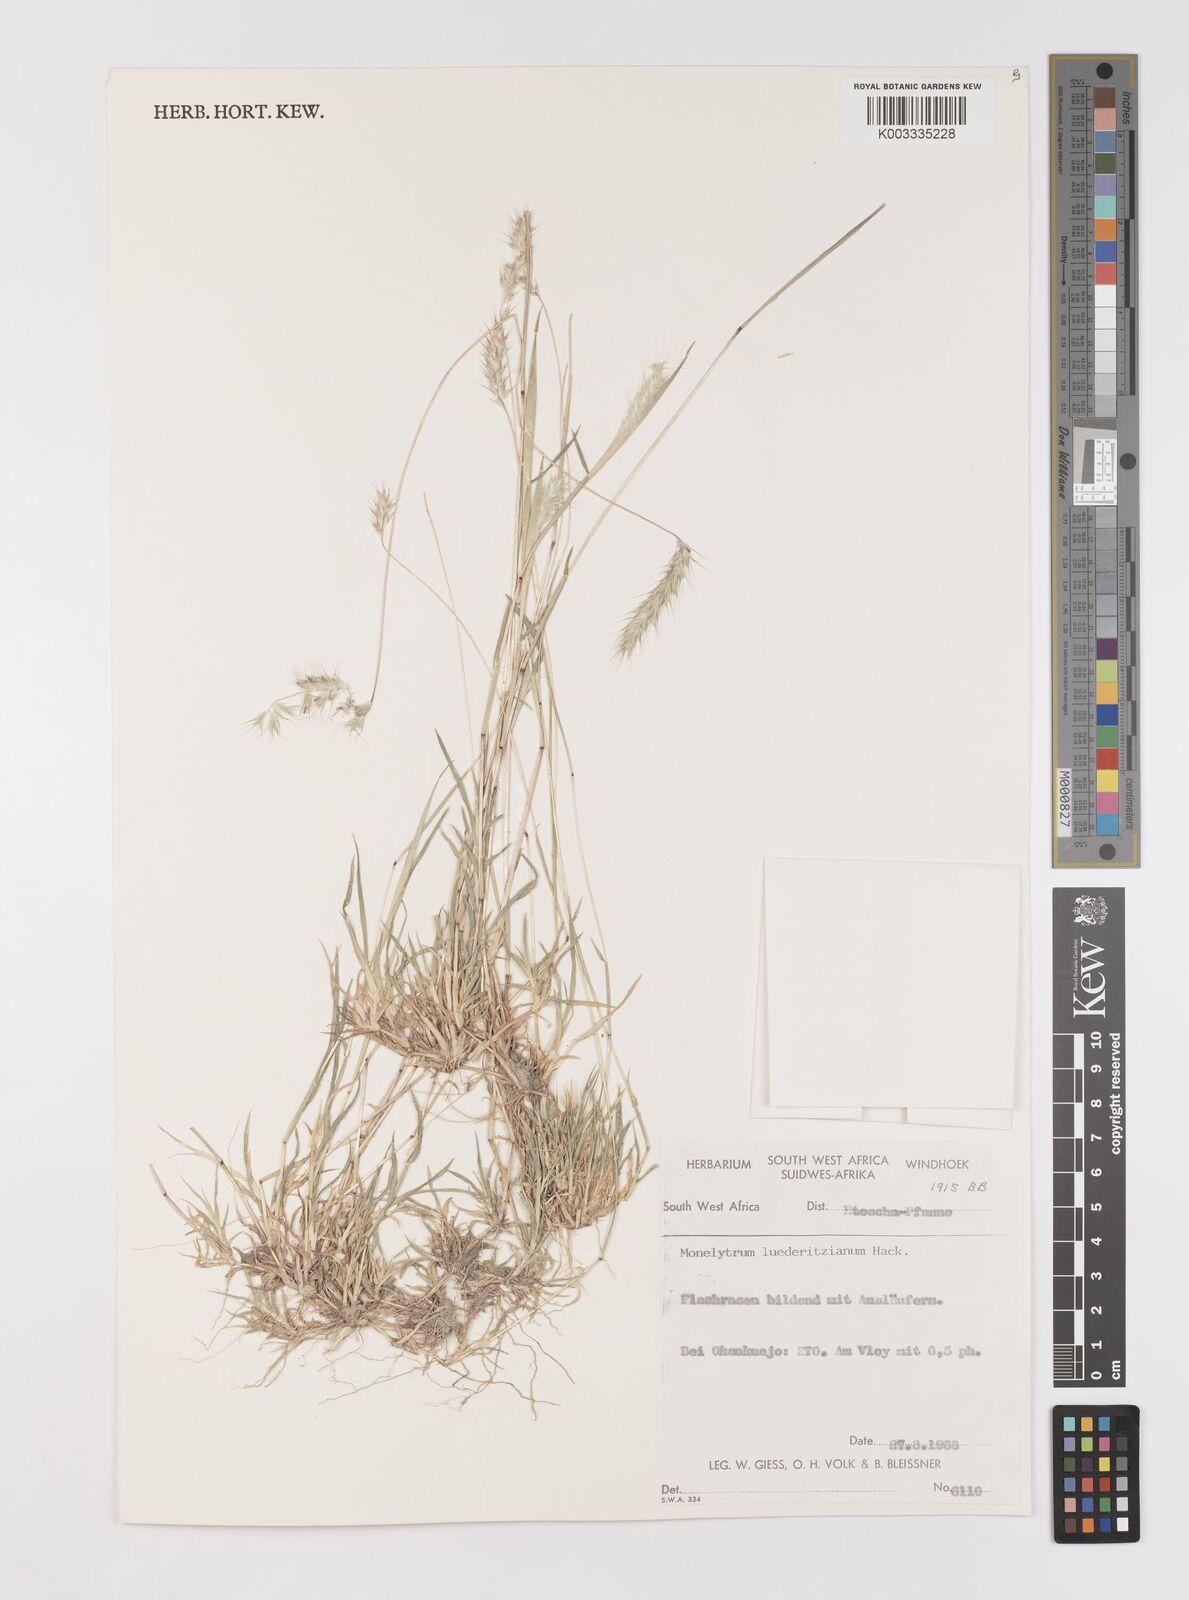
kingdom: Plantae
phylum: Tracheophyta
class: Liliopsida
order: Poales
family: Poaceae
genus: Monelytrum
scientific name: Monelytrum luederitzianum
